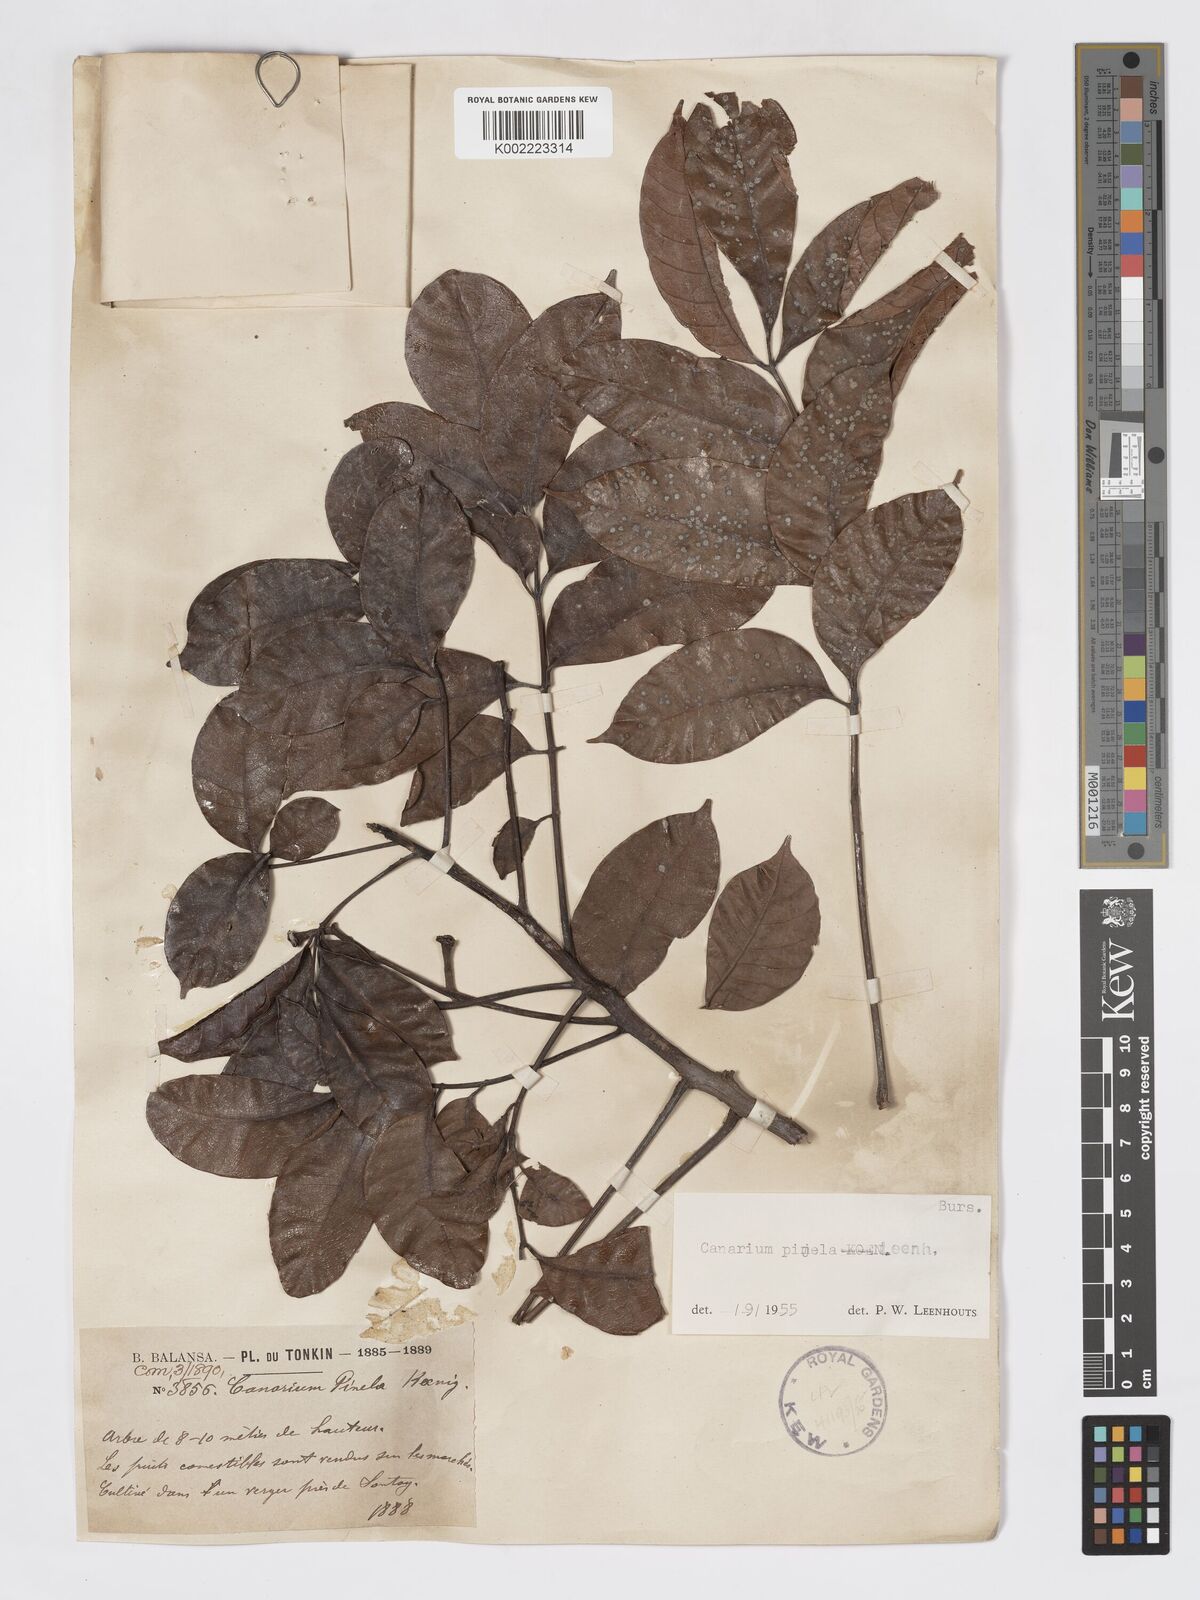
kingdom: Plantae
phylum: Tracheophyta
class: Magnoliopsida
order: Sapindales
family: Burseraceae
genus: Canarium
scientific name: Canarium
